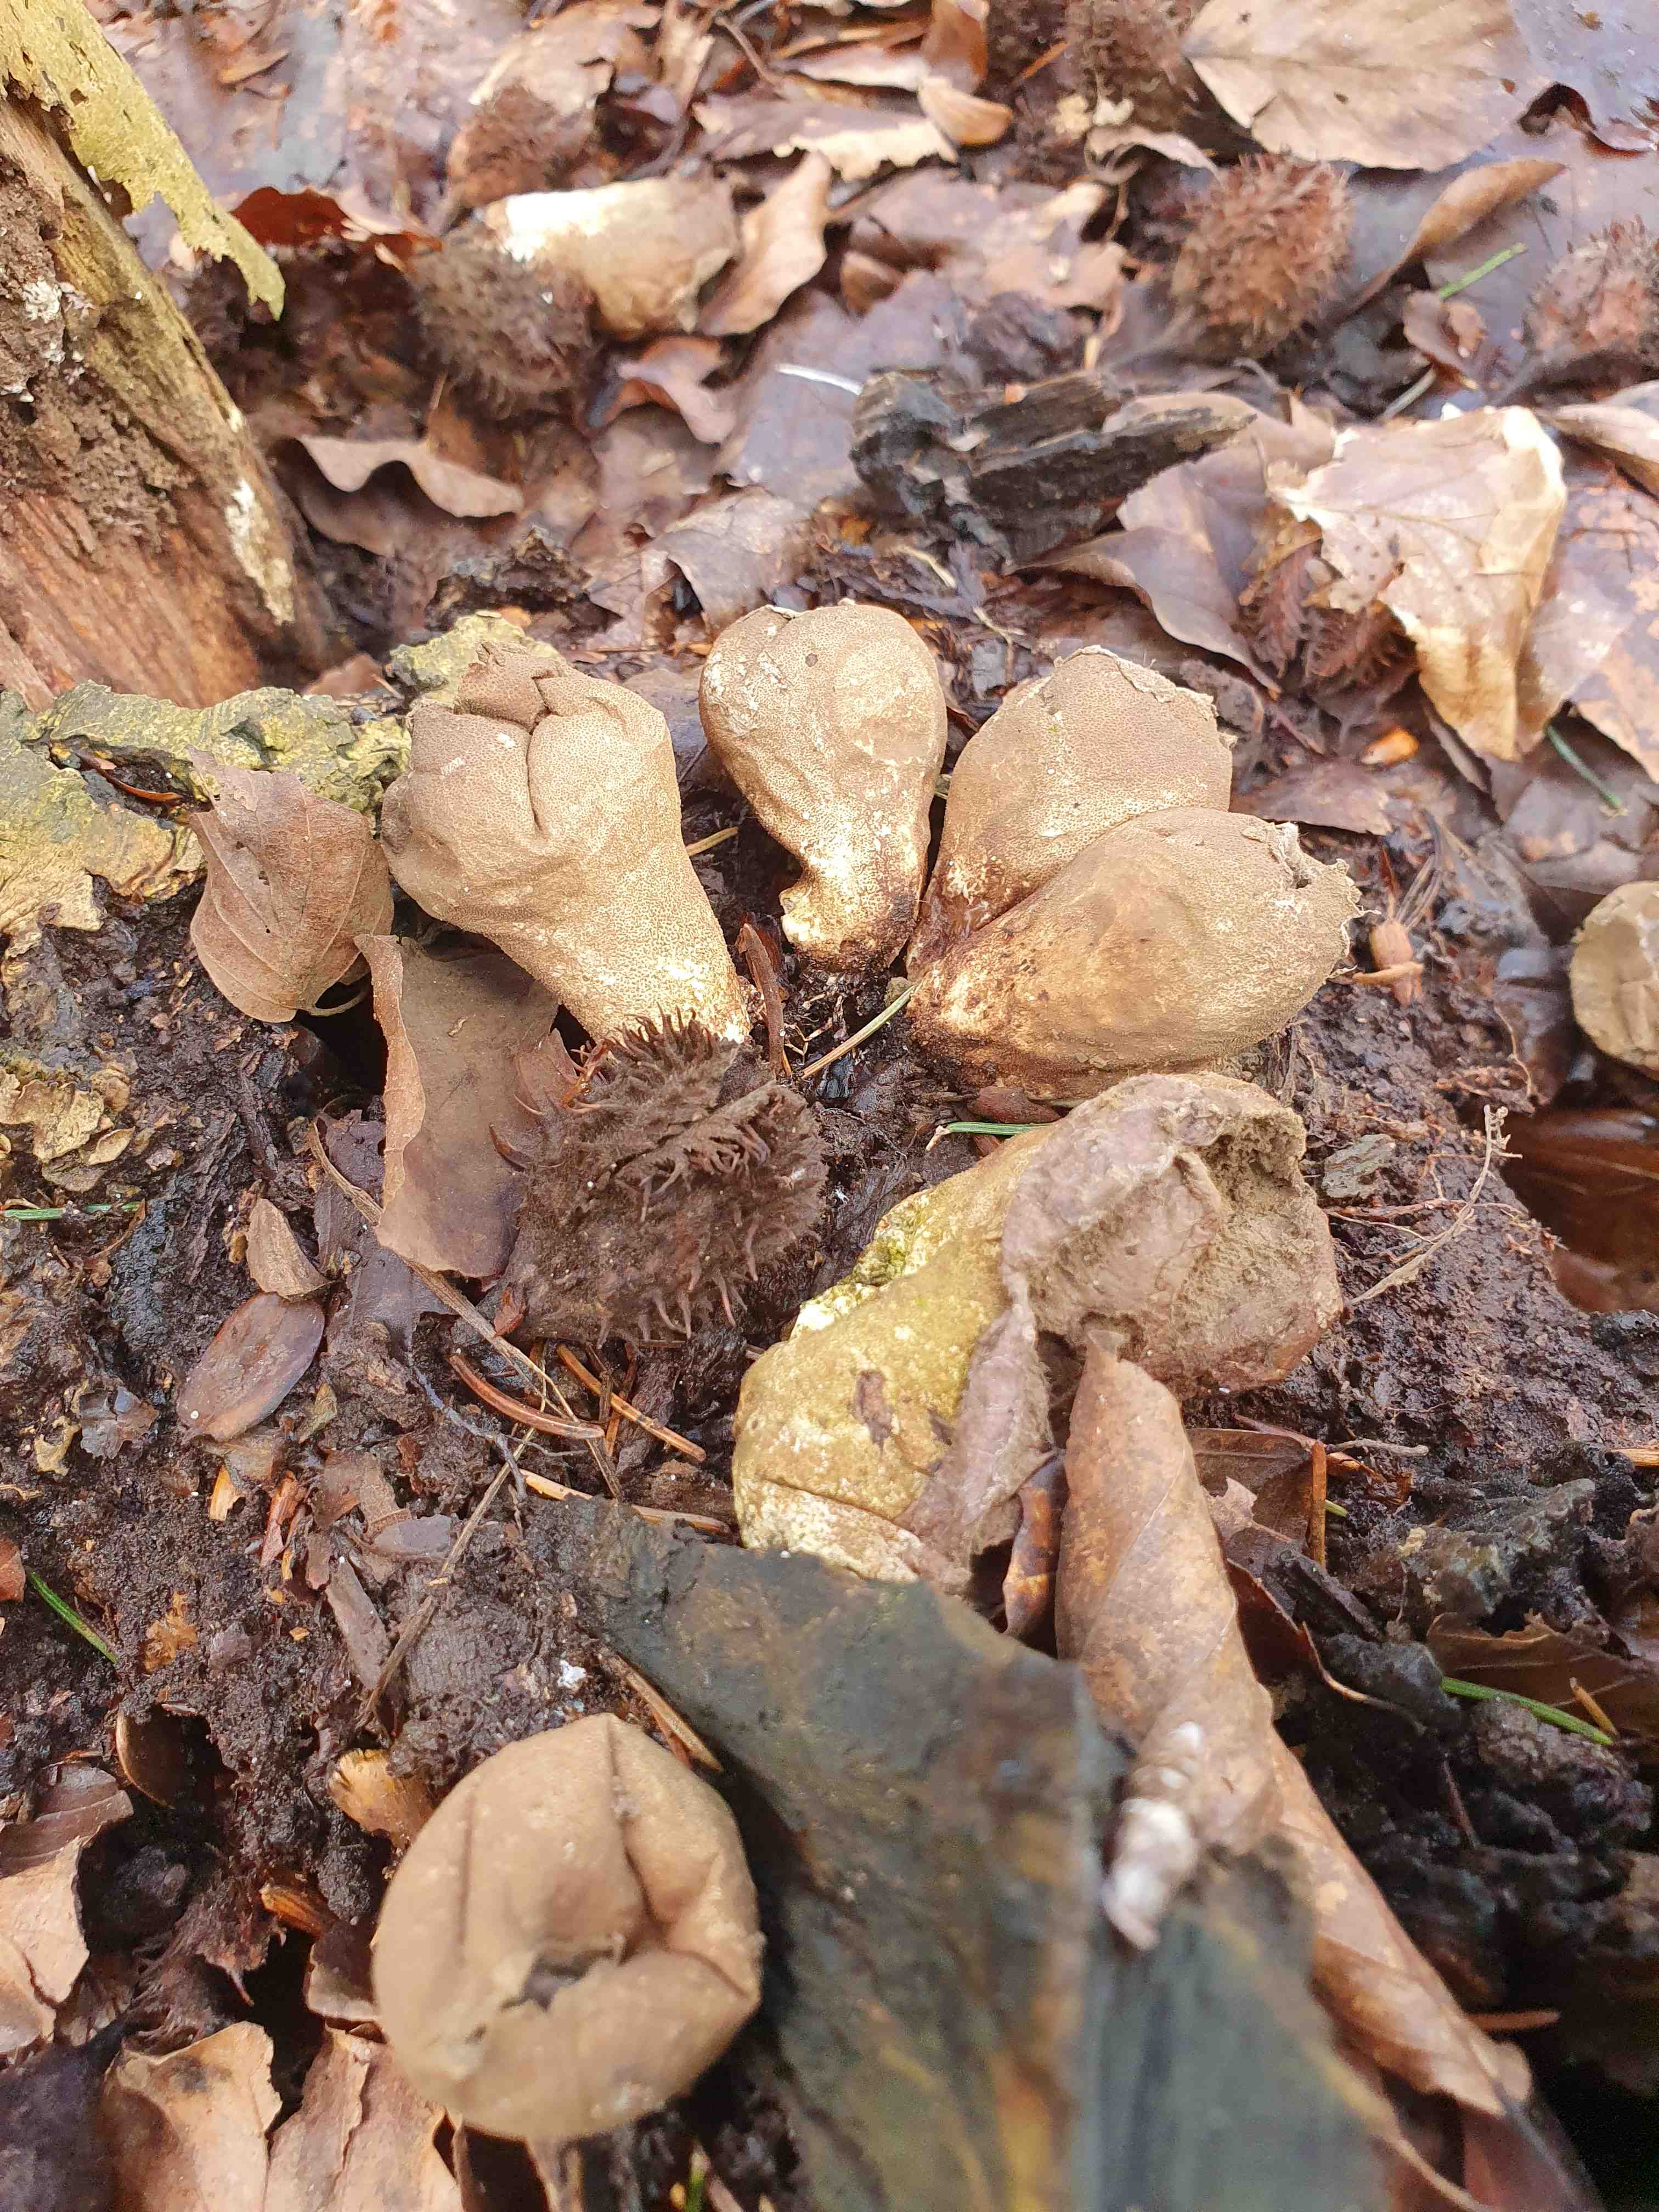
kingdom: Fungi
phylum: Basidiomycota
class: Agaricomycetes
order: Agaricales
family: Lycoperdaceae
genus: Apioperdon
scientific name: Apioperdon pyriforme
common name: pære-støvbold
